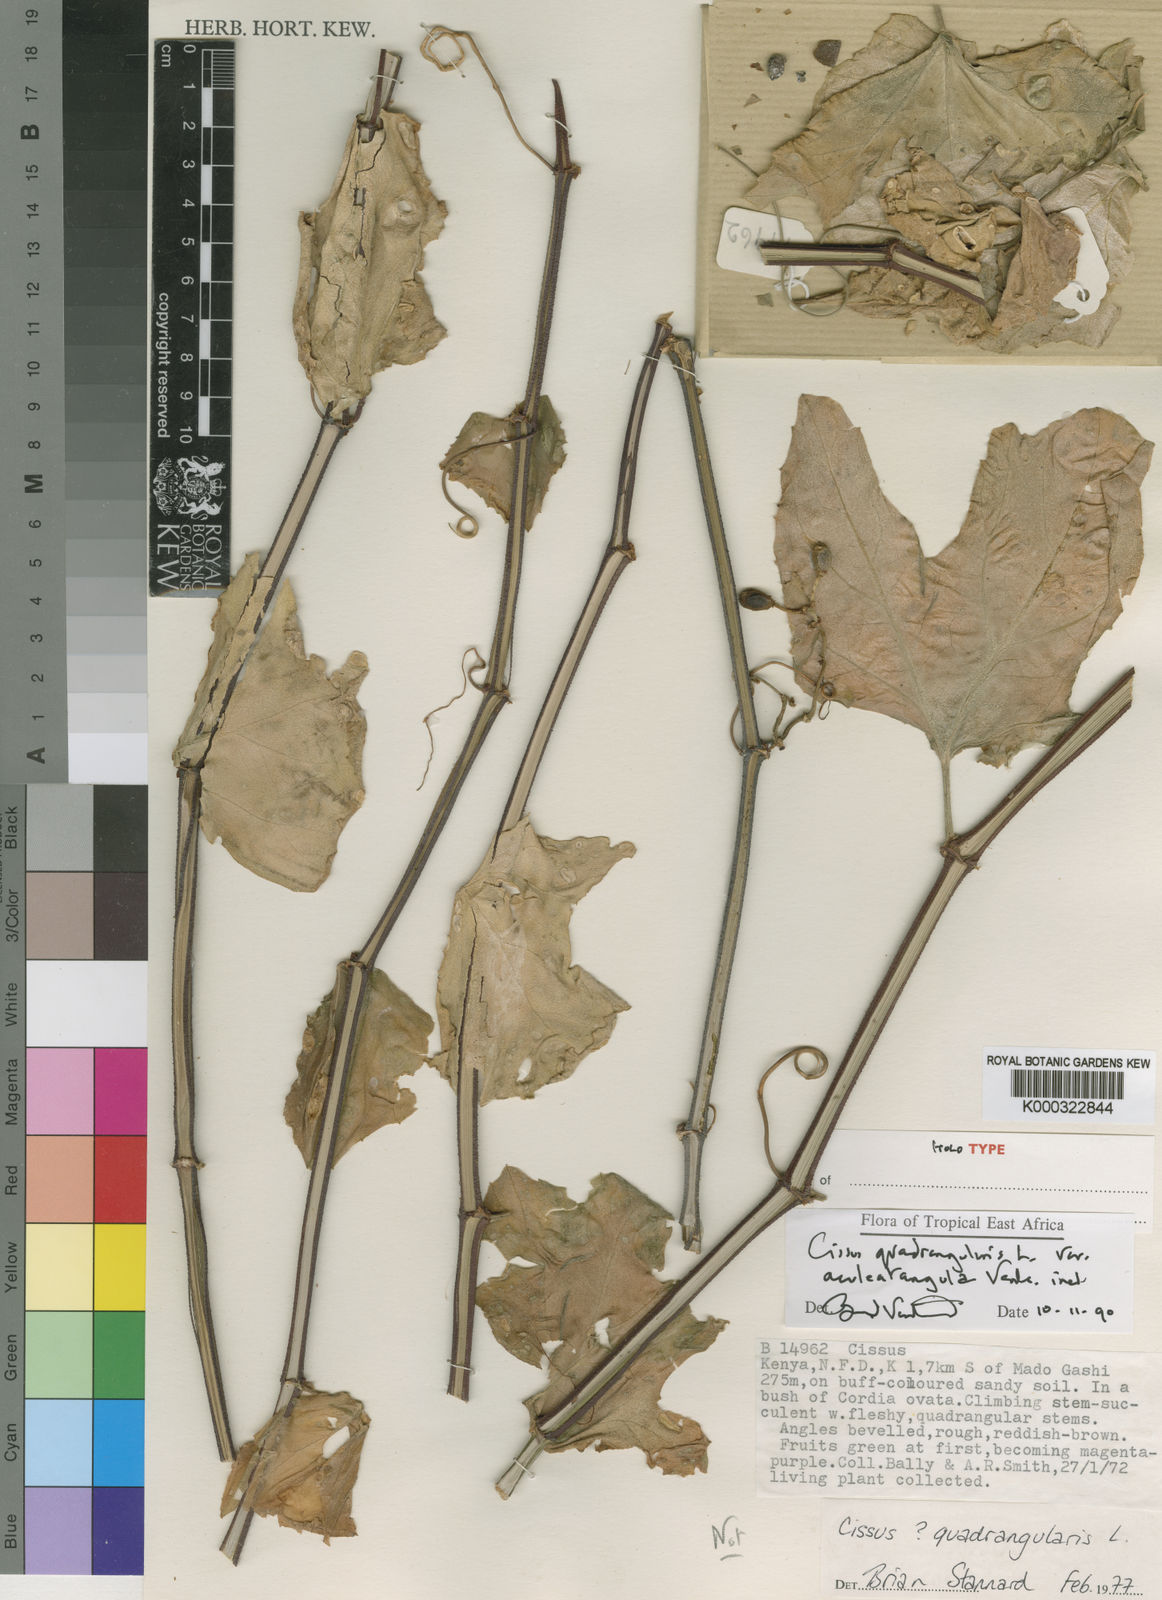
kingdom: Plantae
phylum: Tracheophyta
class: Magnoliopsida
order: Vitales
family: Vitaceae
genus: Cissus
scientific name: Cissus quadrangularis
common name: Veldt-grape
